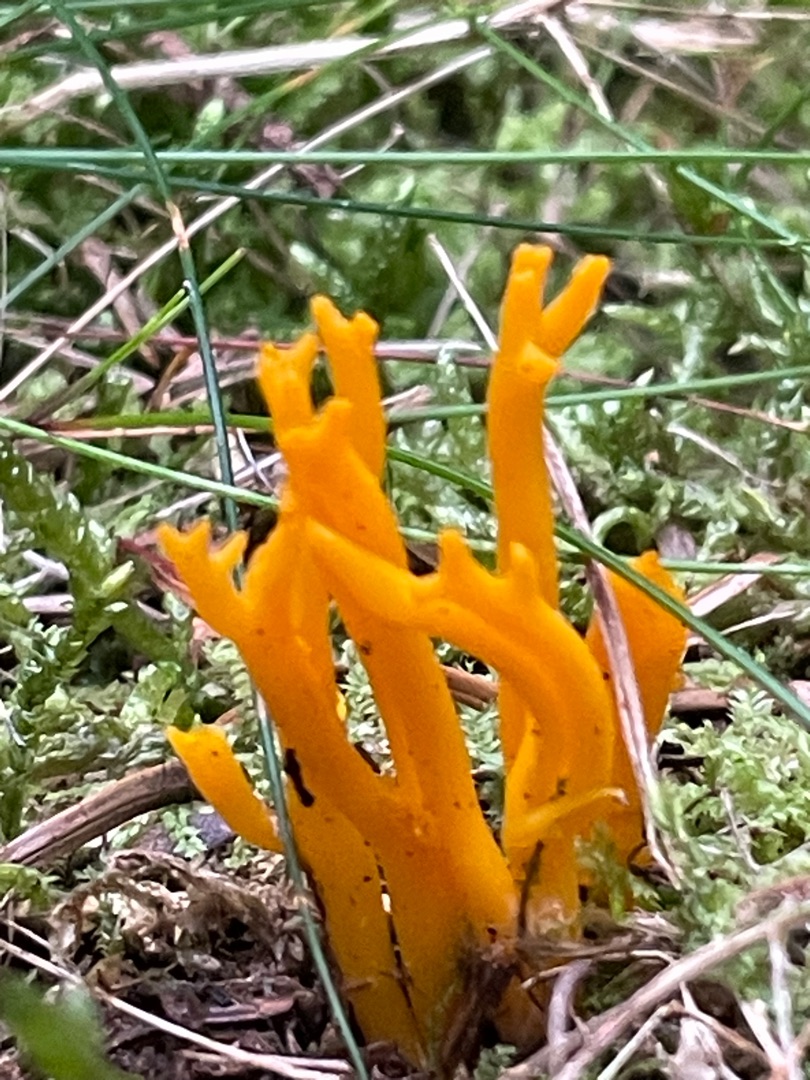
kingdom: Fungi
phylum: Basidiomycota
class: Dacrymycetes
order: Dacrymycetales
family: Dacrymycetaceae
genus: Calocera
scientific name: Calocera viscosa
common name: Almindelig guldgaffel
